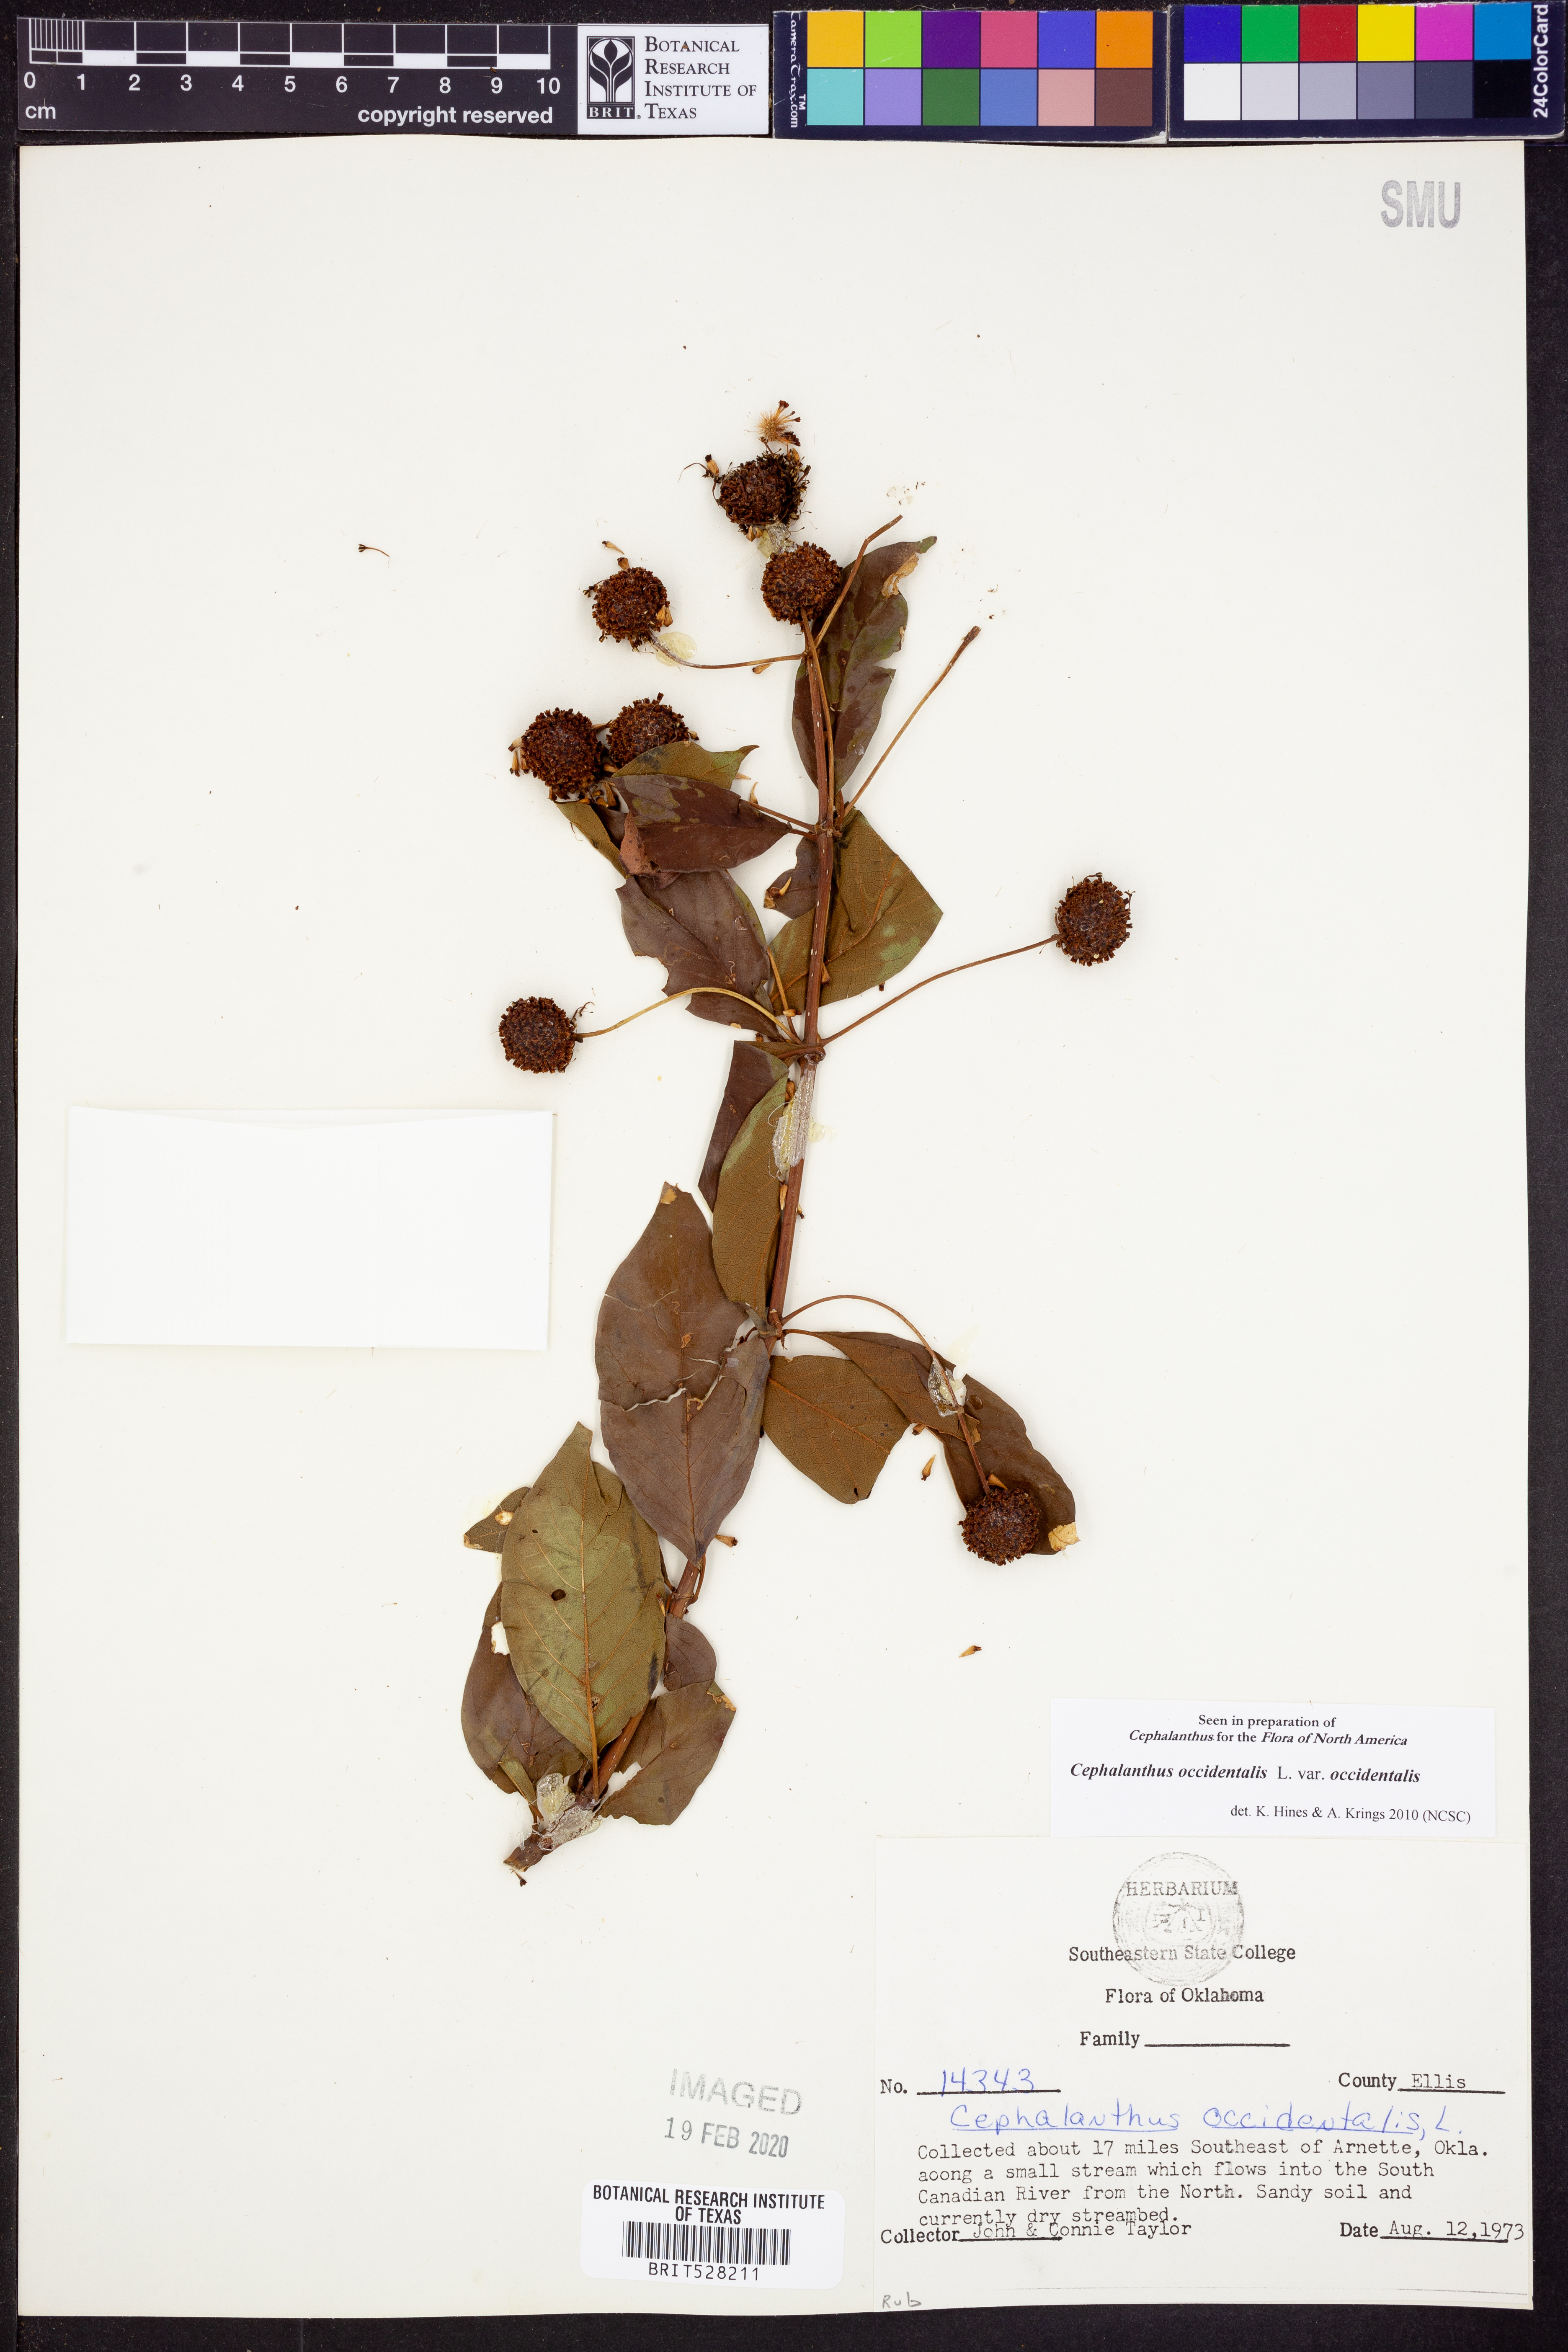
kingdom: Plantae
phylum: Tracheophyta
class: Magnoliopsida
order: Gentianales
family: Rubiaceae
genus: Cephalanthus
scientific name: Cephalanthus occidentalis
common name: Button-willow
